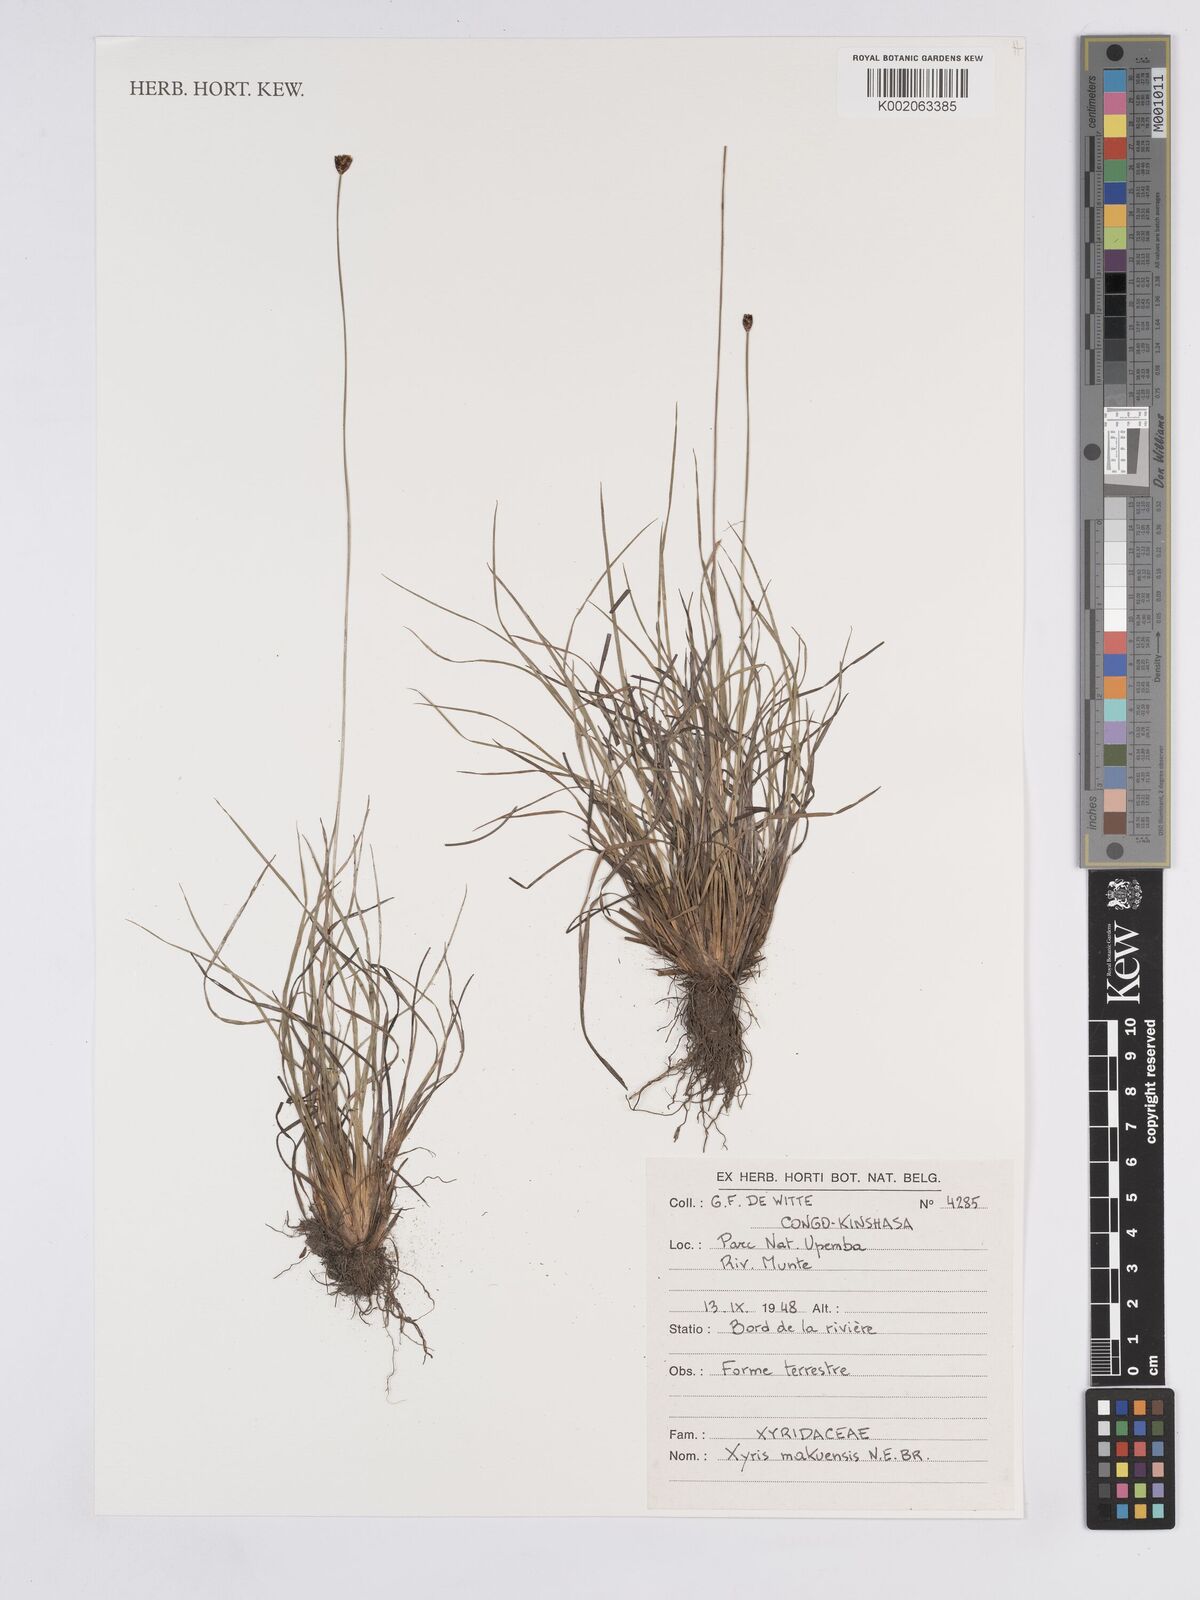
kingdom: Plantae
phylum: Tracheophyta
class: Liliopsida
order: Poales
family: Xyridaceae
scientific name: Xyridaceae
